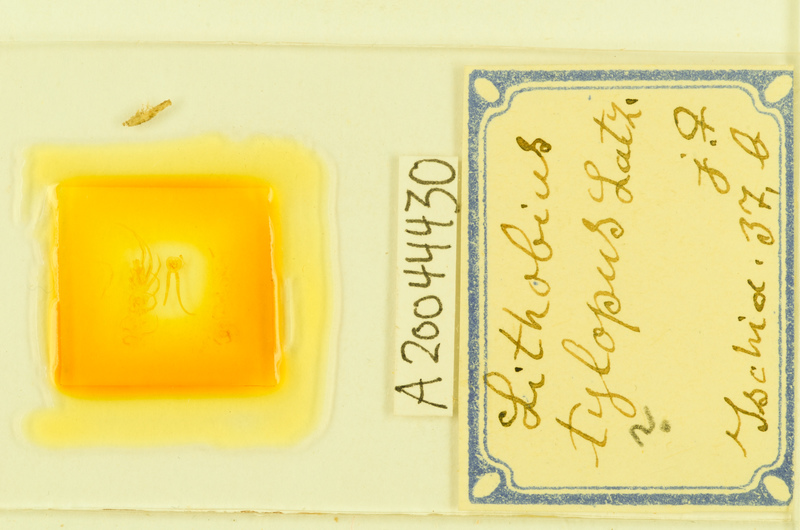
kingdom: Animalia
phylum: Arthropoda
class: Chilopoda
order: Lithobiomorpha
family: Lithobiidae
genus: Lithobius
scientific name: Lithobius tylopus
